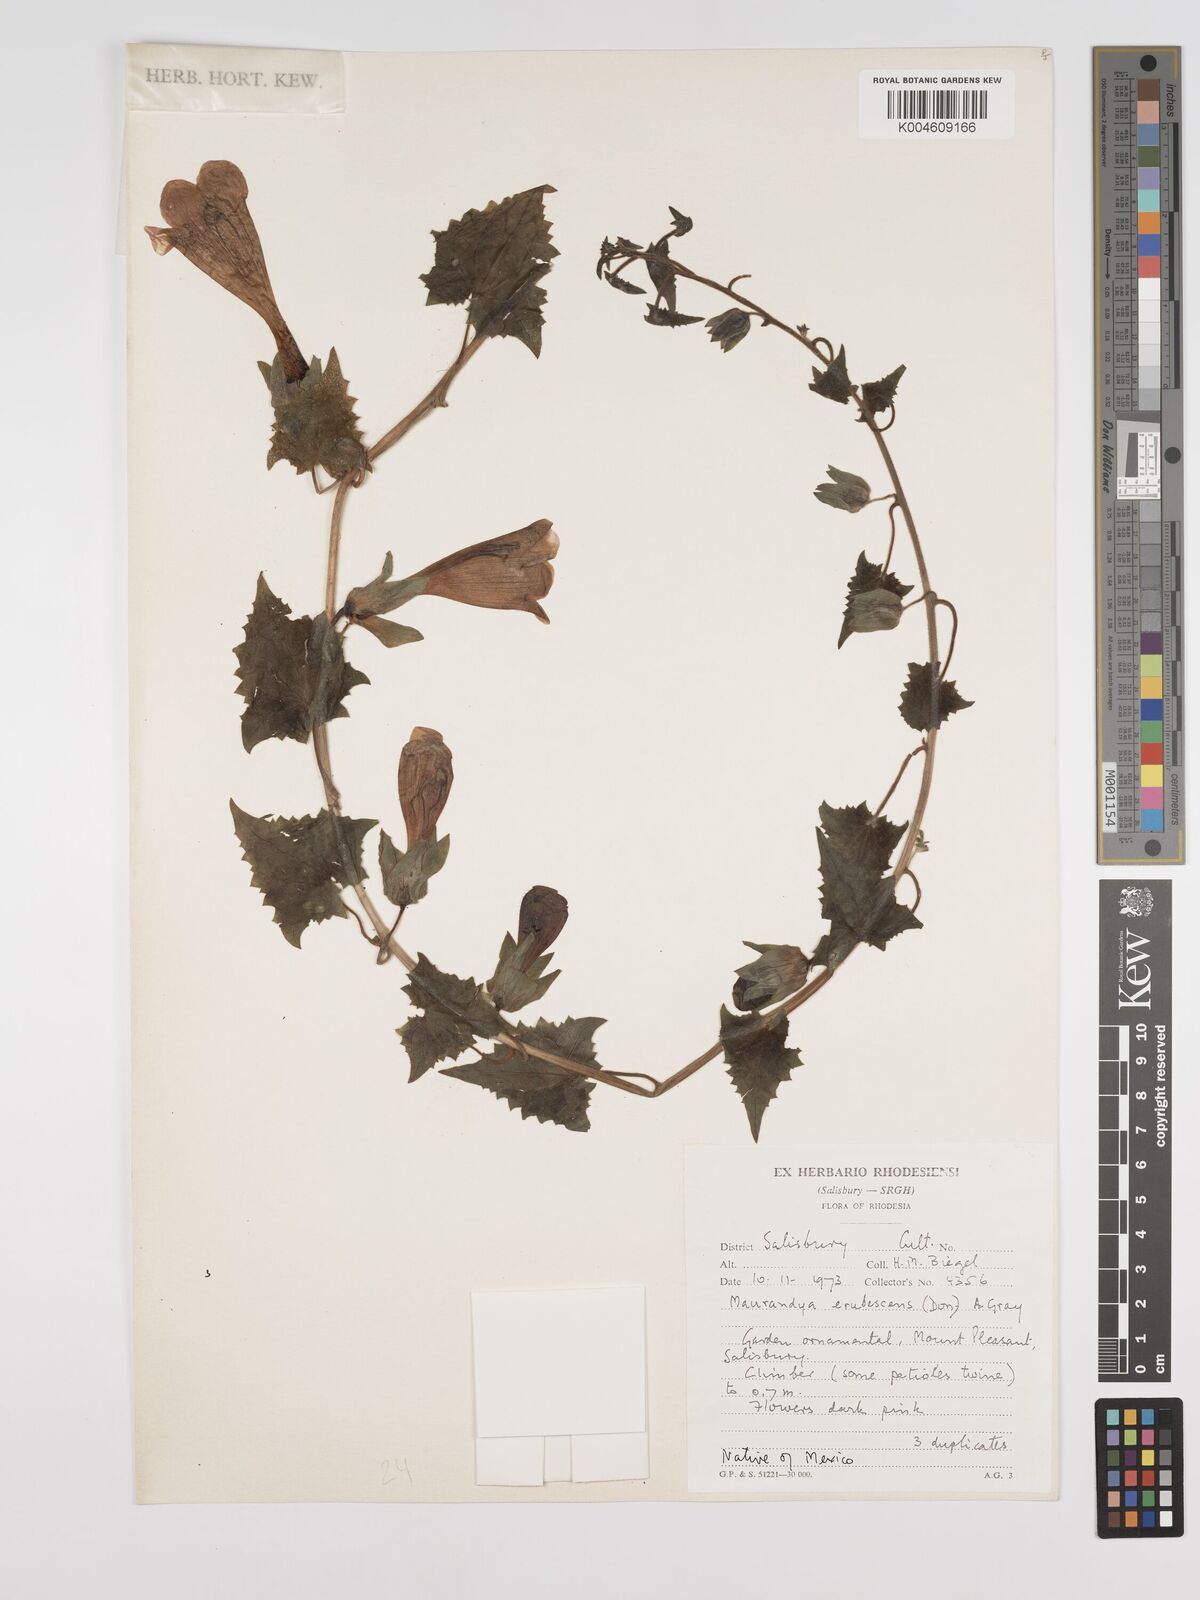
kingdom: Plantae
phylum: Tracheophyta
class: Magnoliopsida
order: Lamiales
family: Plantaginaceae
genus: Lophospermum
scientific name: Lophospermum erubescens
